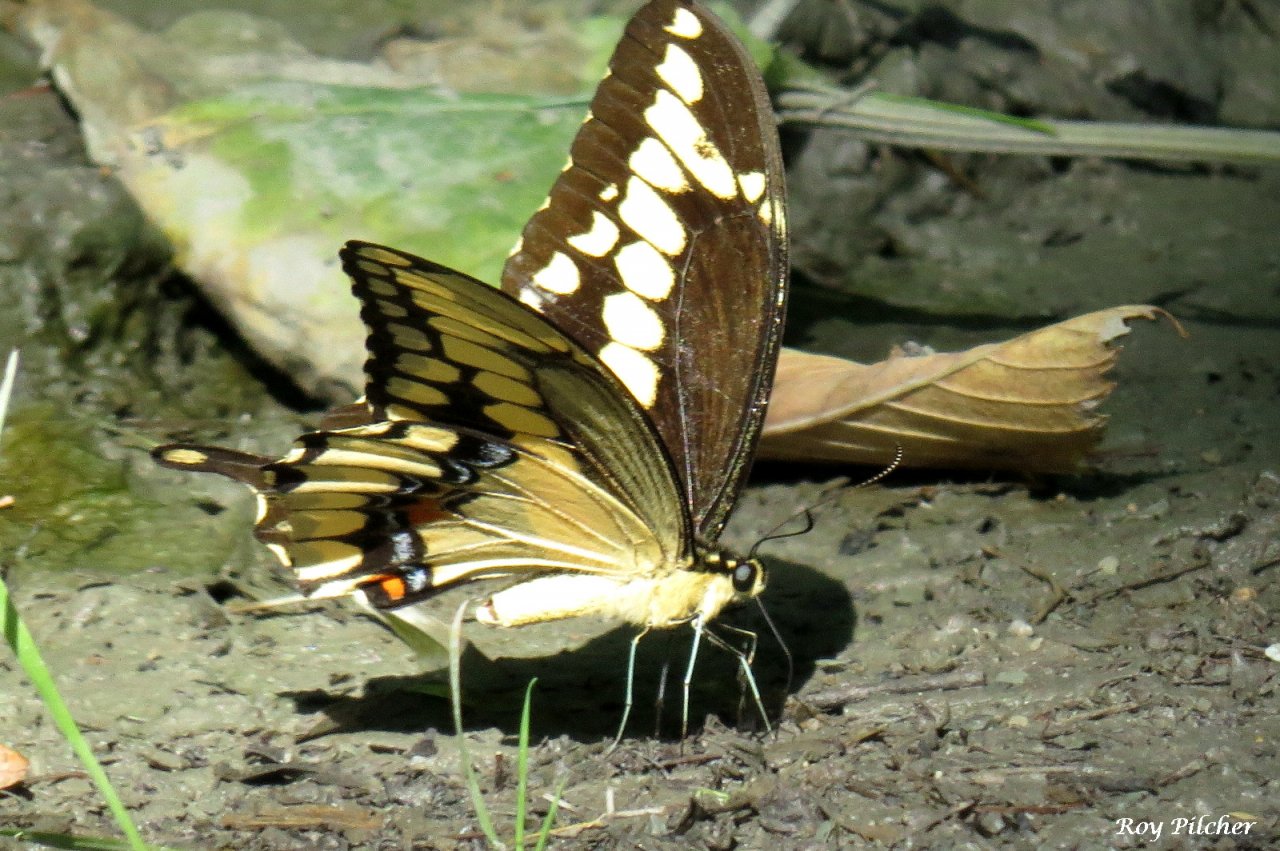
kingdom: Animalia
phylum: Arthropoda
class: Insecta
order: Lepidoptera
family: Papilionidae
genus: Papilio
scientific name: Papilio cresphontes
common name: Eastern Giant Swallowtail
